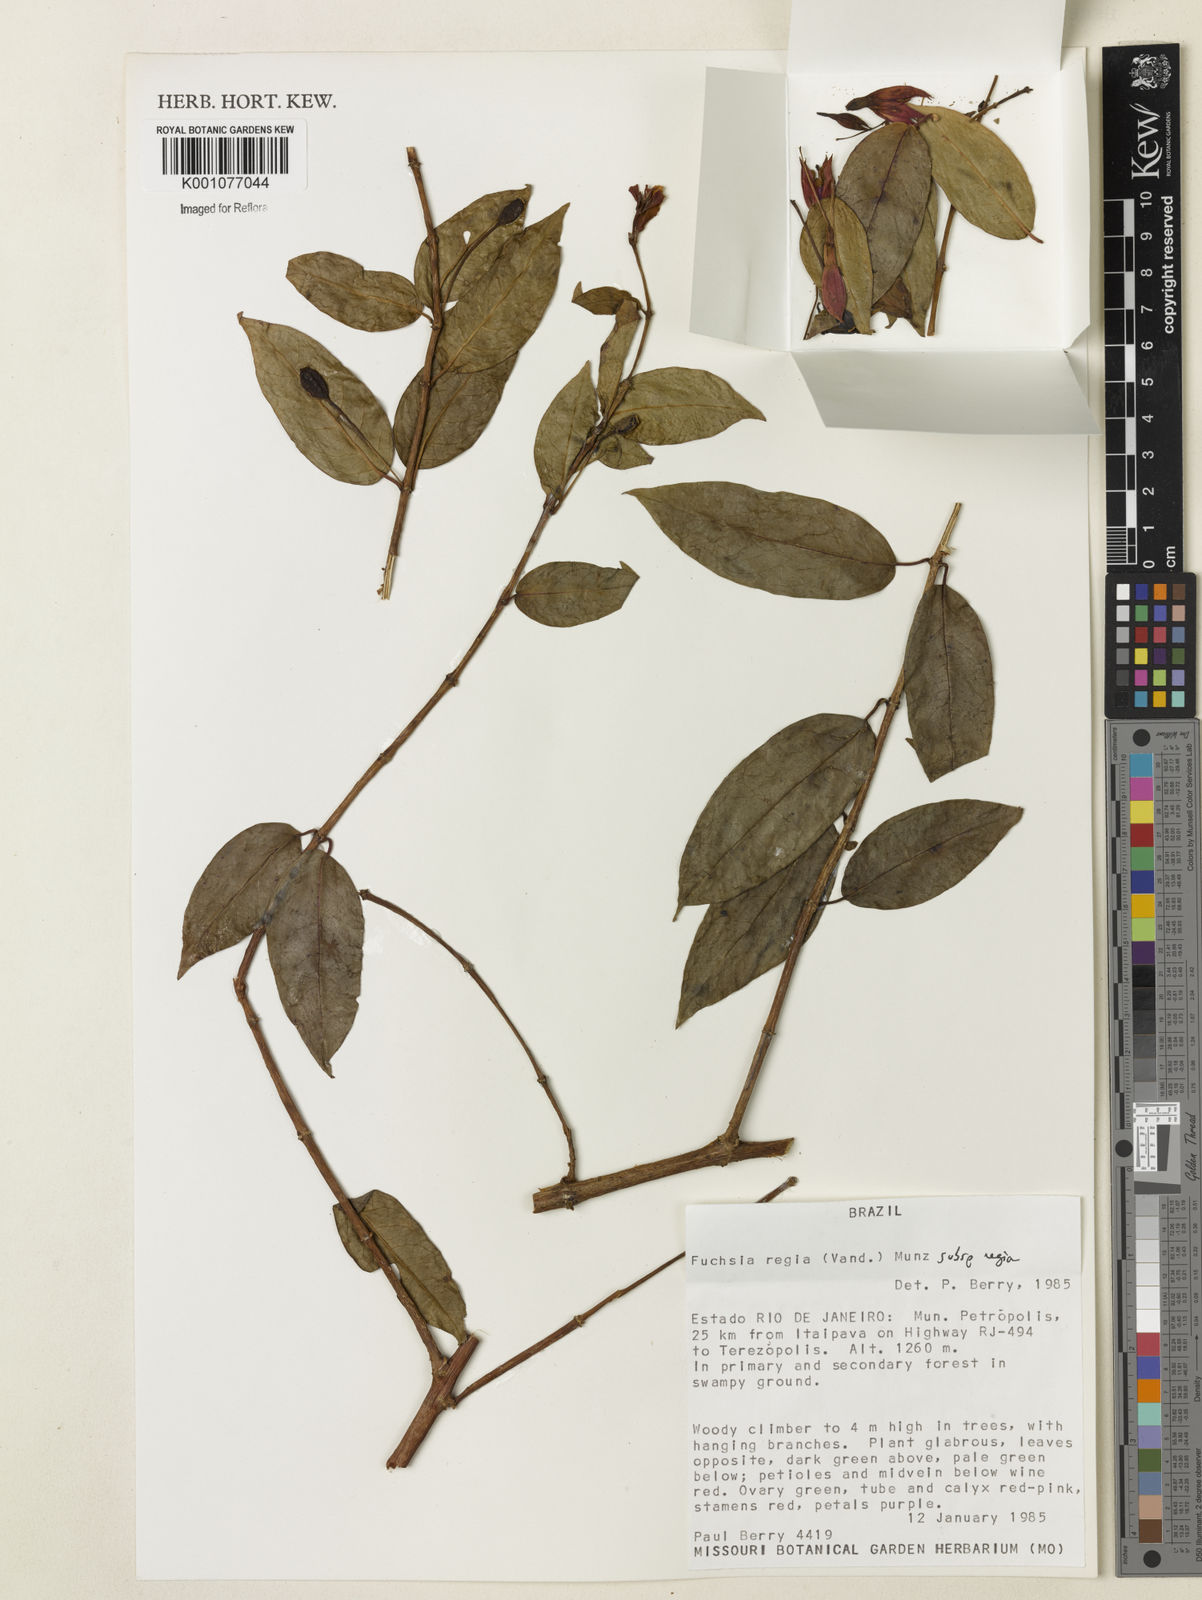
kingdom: Plantae
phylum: Tracheophyta
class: Magnoliopsida
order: Myrtales
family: Onagraceae
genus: Fuchsia
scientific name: Fuchsia regia
